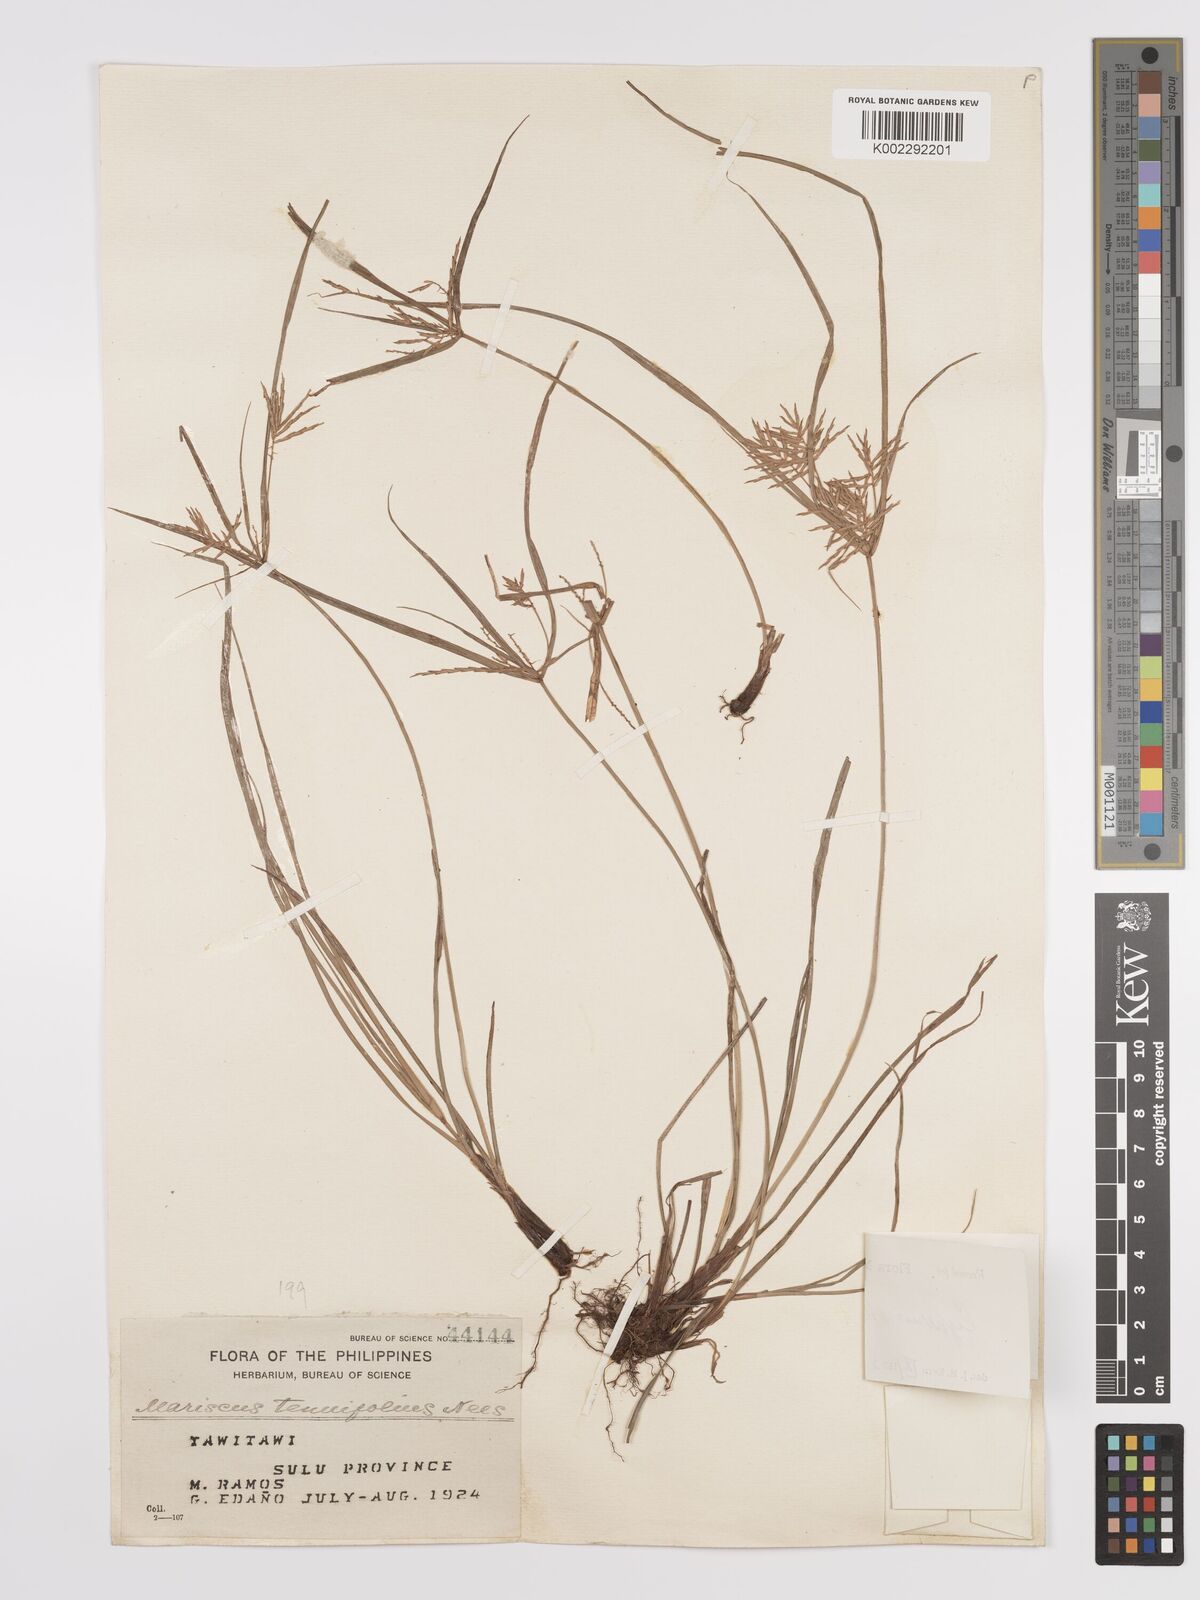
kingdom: Plantae
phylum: Tracheophyta
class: Liliopsida
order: Poales
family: Cyperaceae
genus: Cyperus
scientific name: Cyperus stenophyllus
